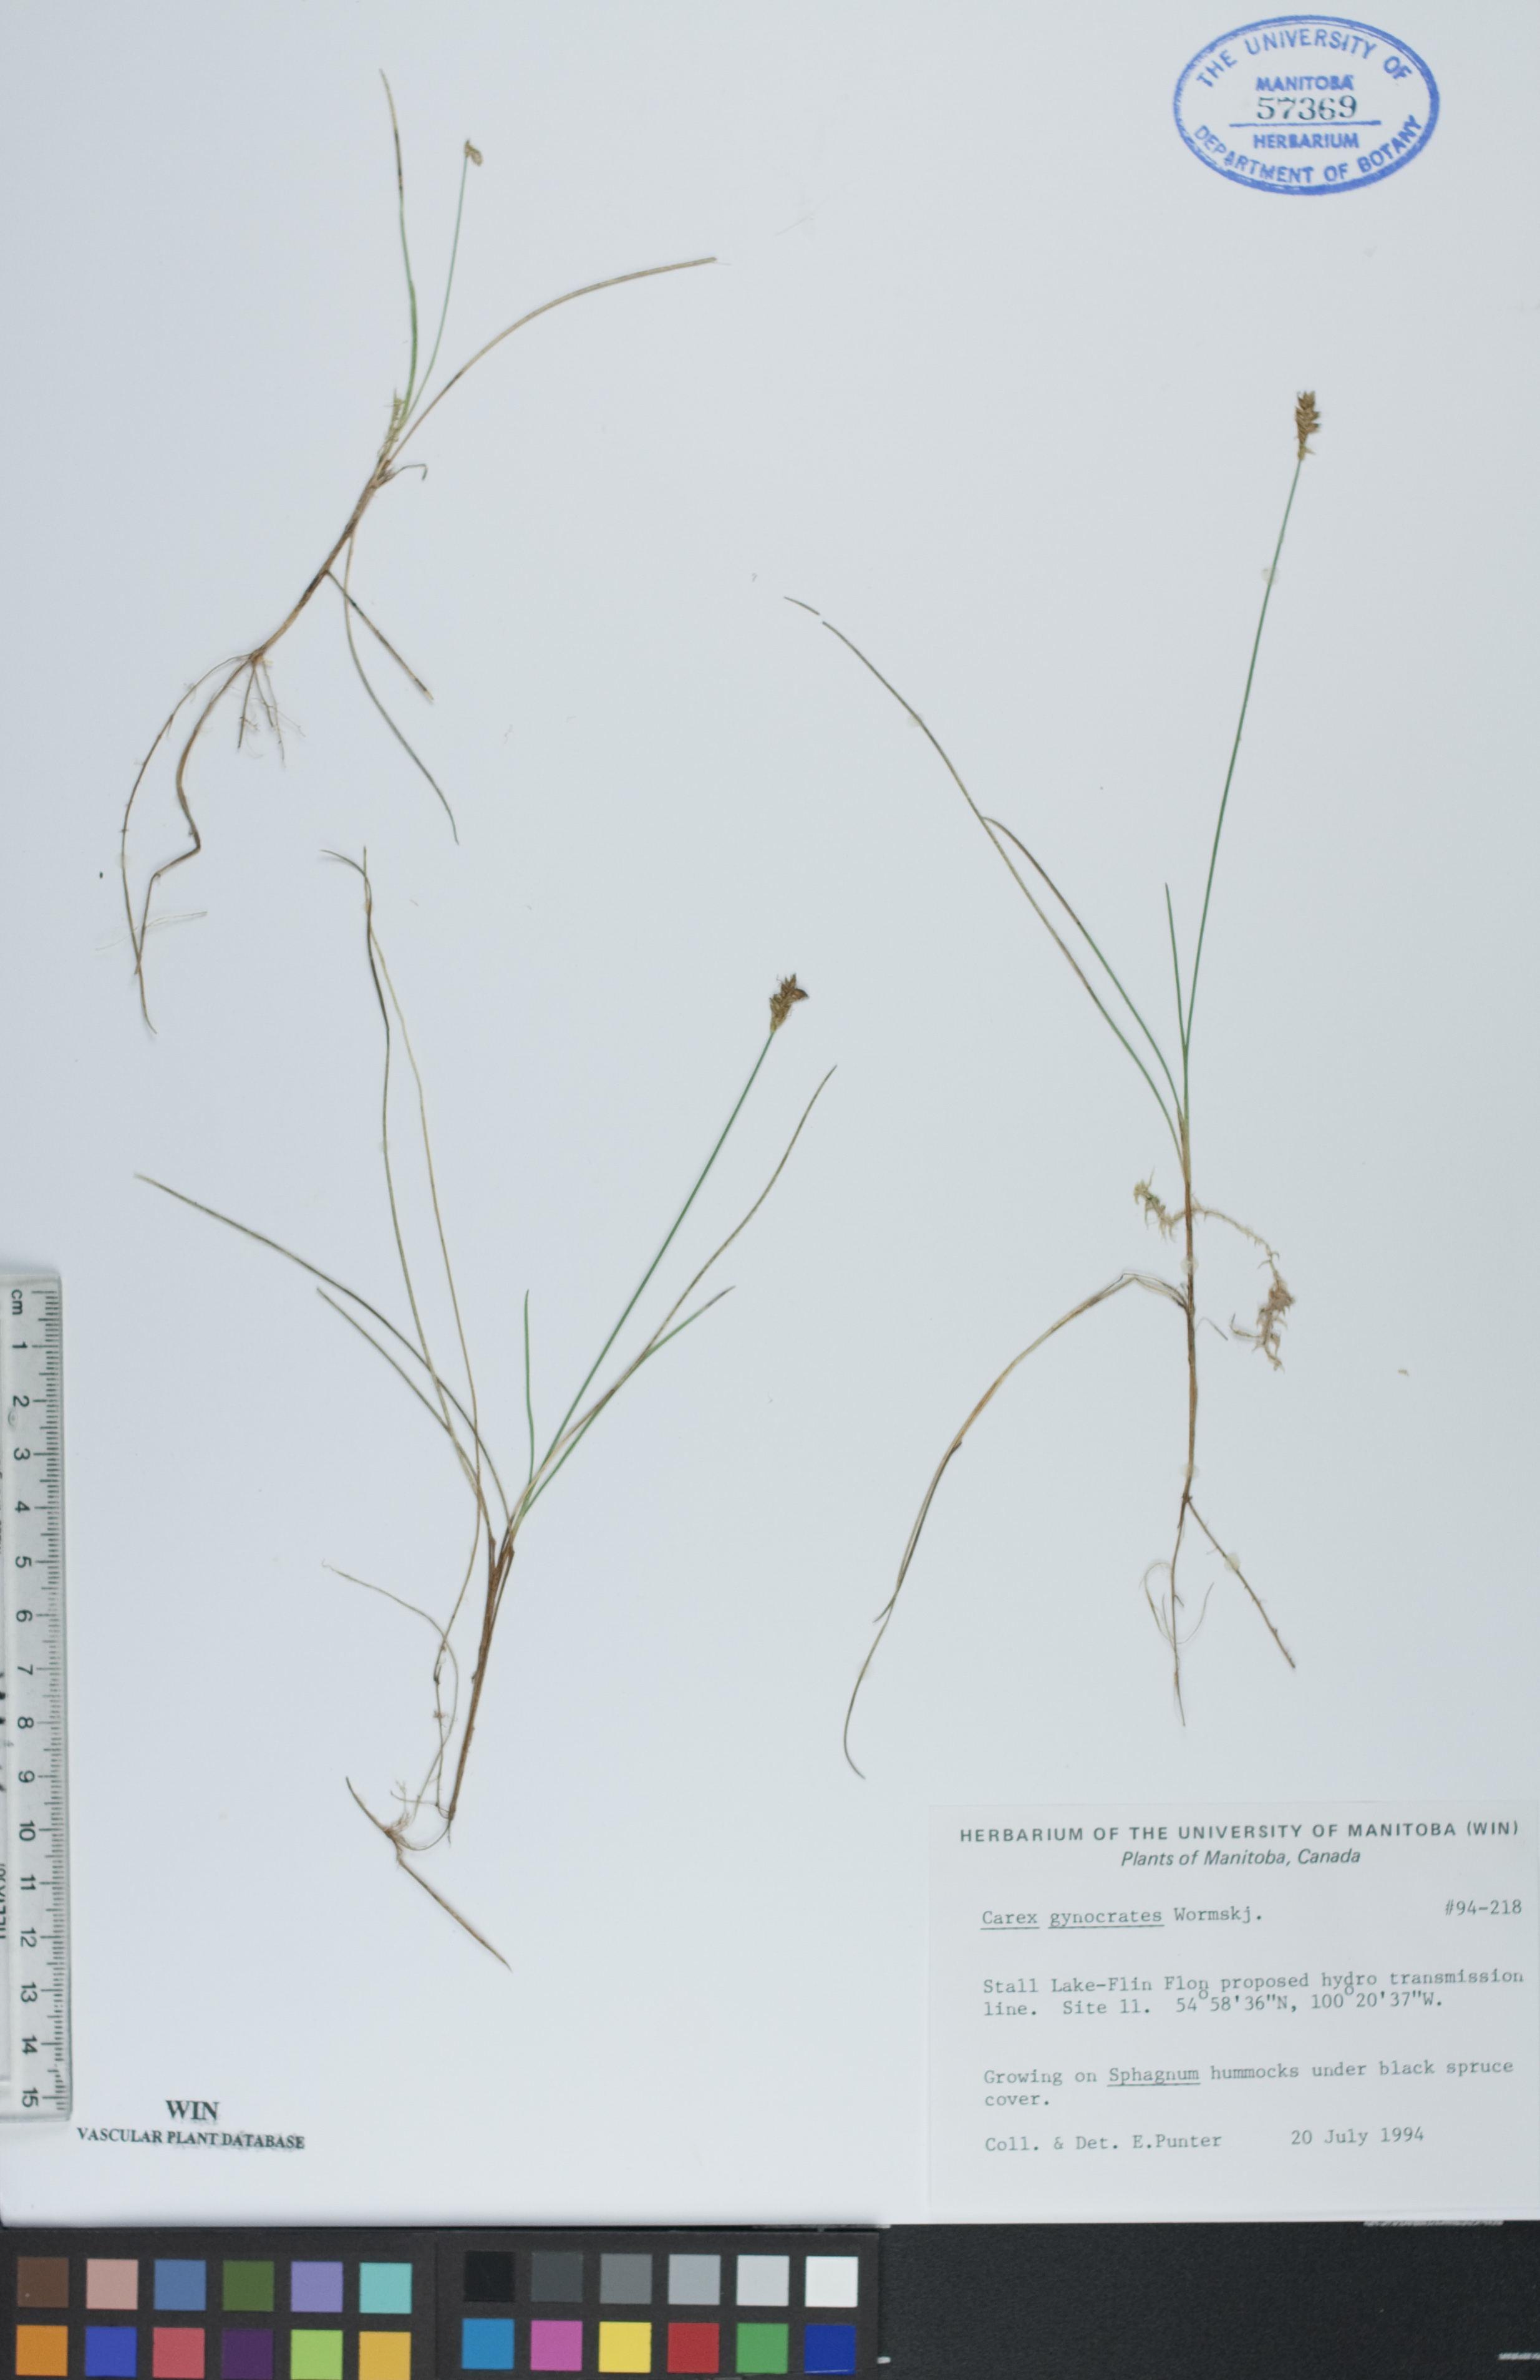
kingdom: Plantae
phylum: Tracheophyta
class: Liliopsida
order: Poales
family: Cyperaceae
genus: Carex
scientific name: Carex nardina
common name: Nard sedge
